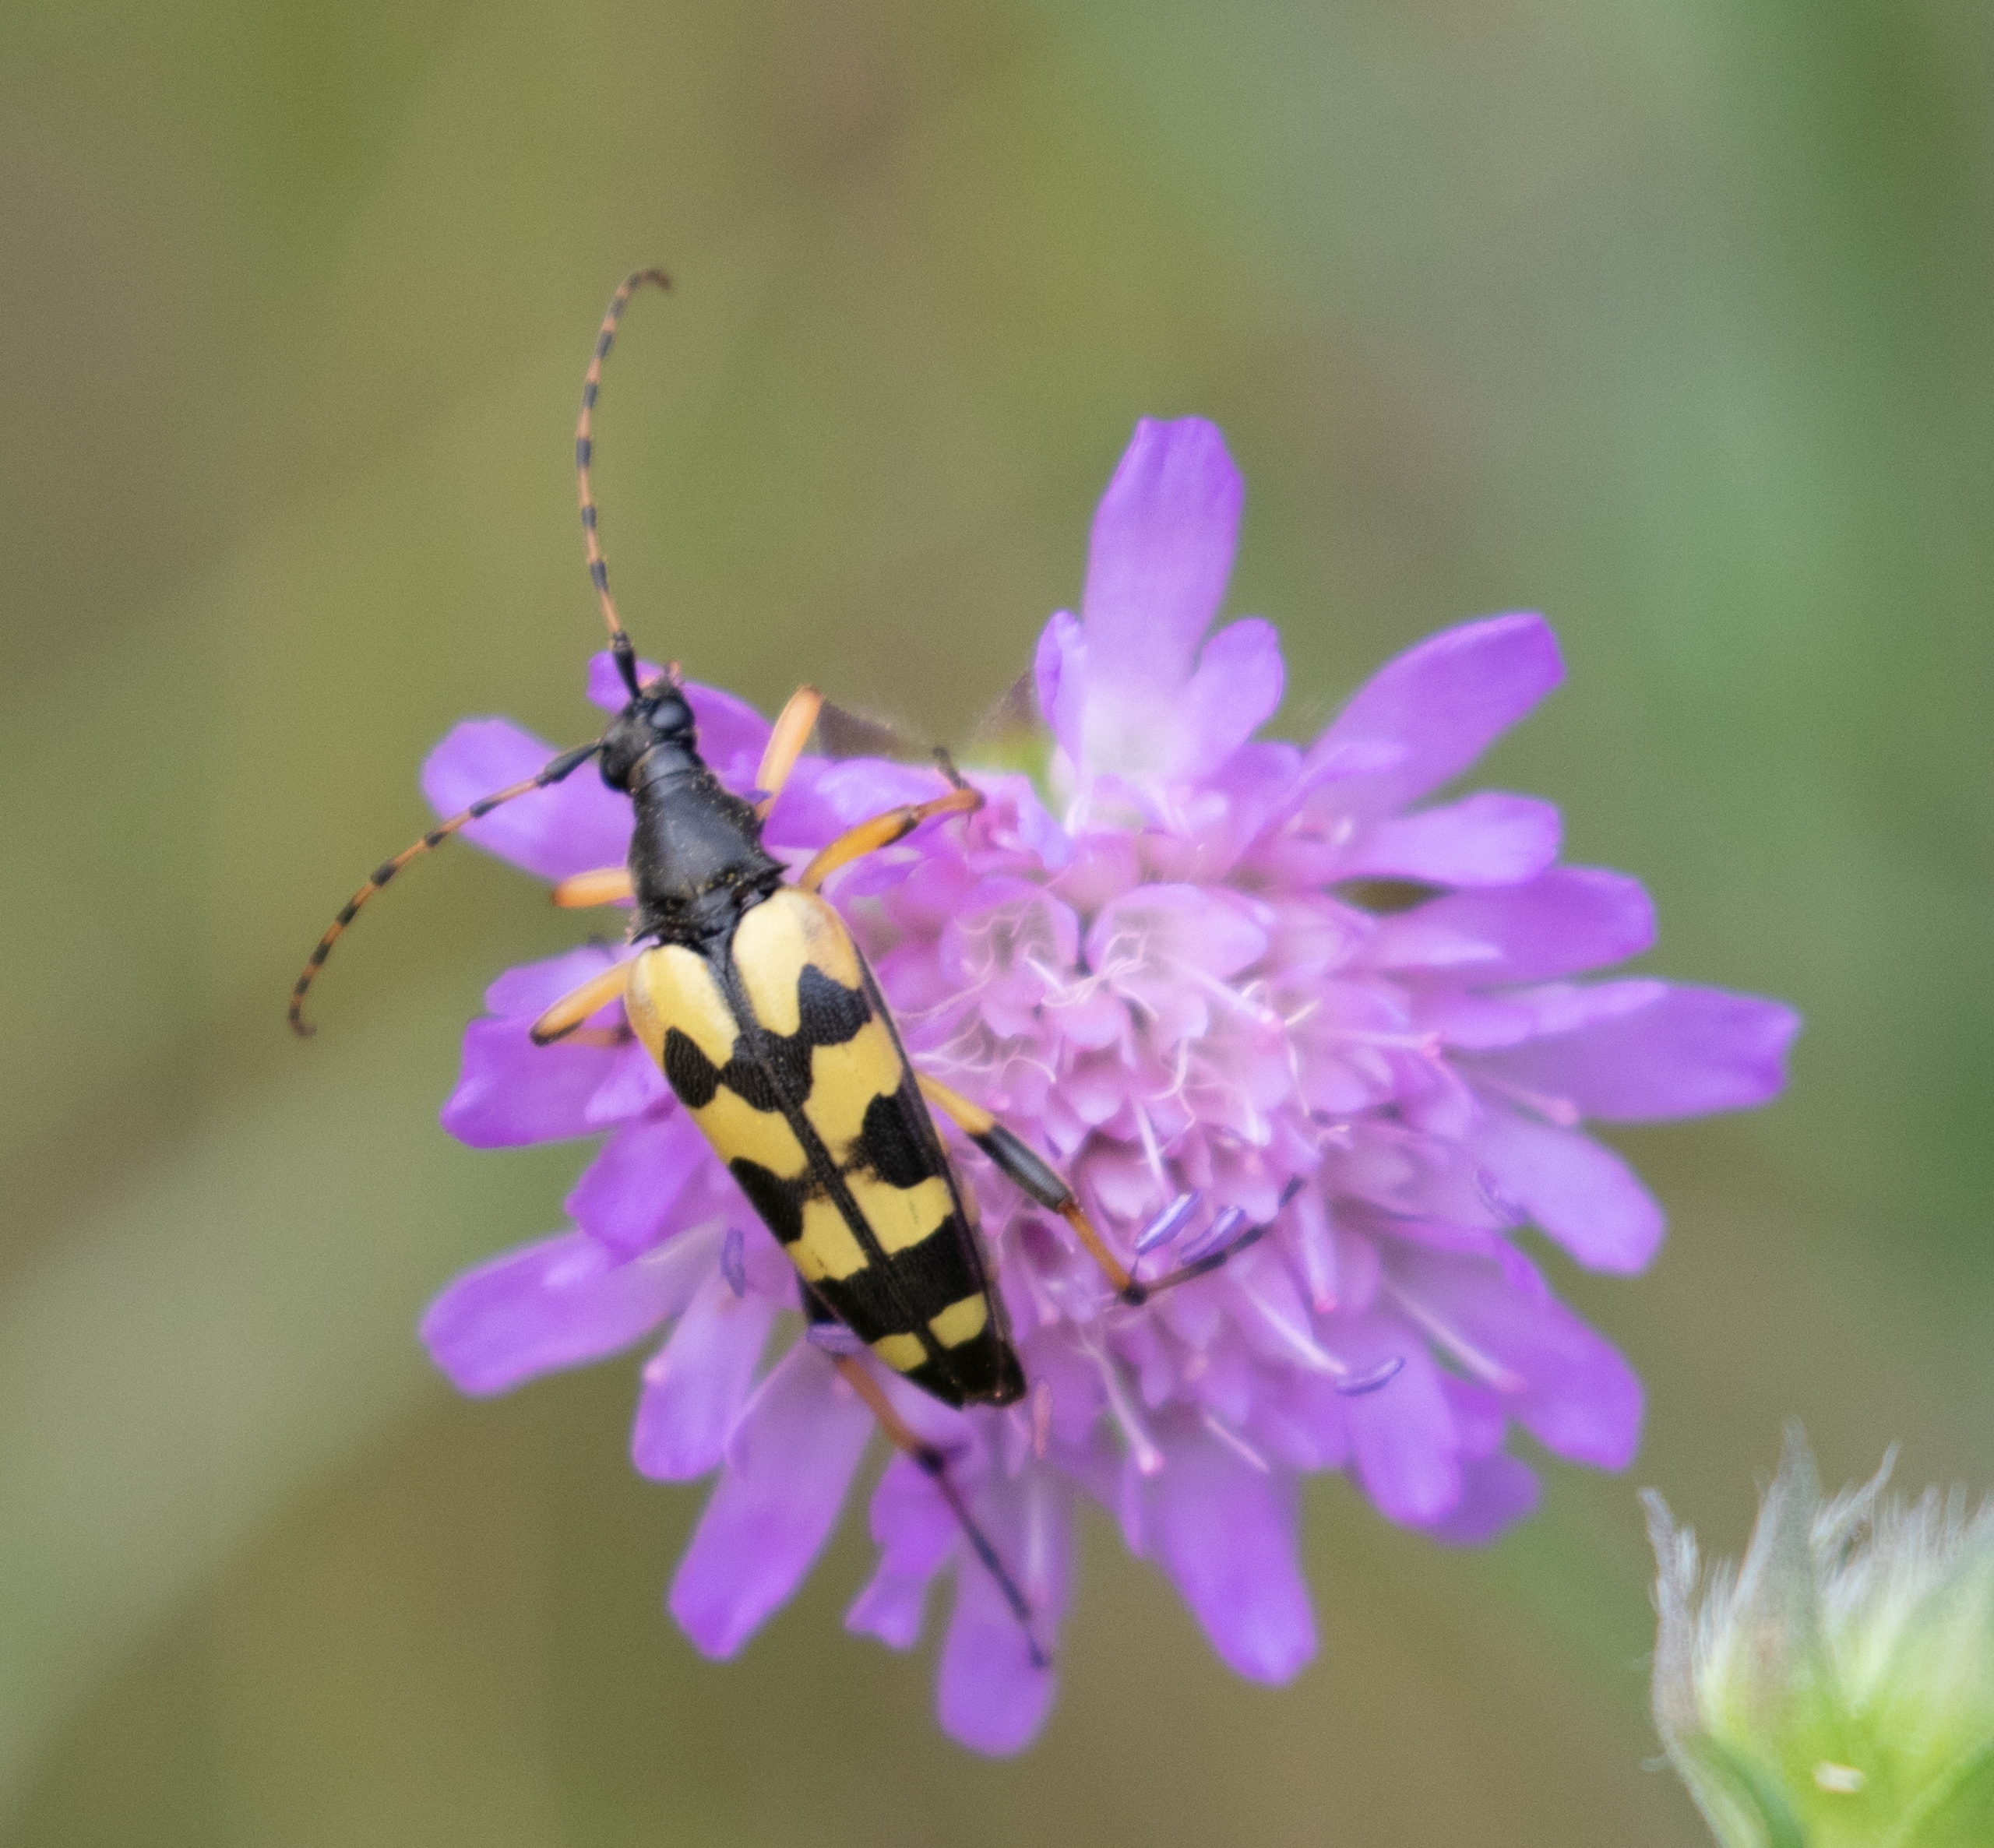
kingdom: Animalia
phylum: Arthropoda
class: Insecta
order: Coleoptera
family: Cerambycidae
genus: Rutpela
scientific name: Rutpela maculata
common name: Sydlig blomsterbuk
